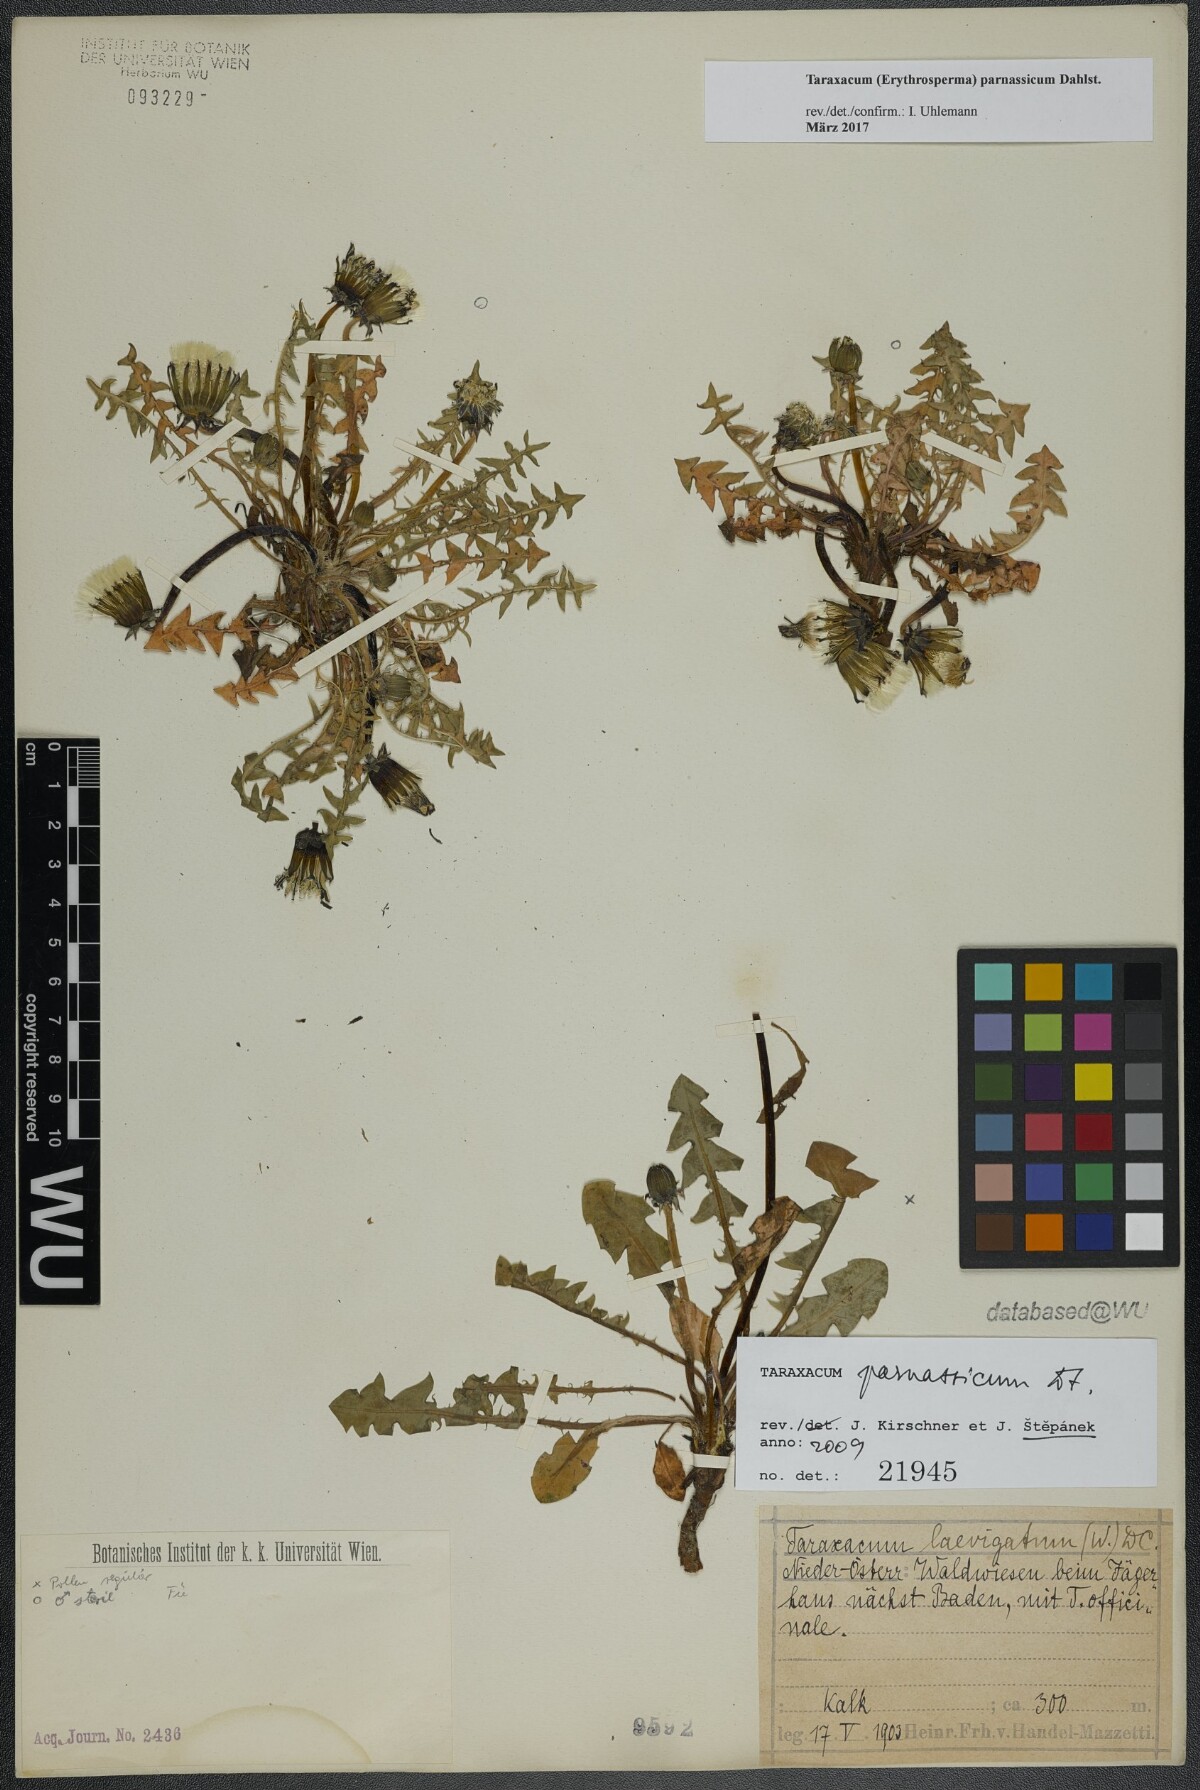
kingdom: Plantae
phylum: Tracheophyta
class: Magnoliopsida
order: Asterales
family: Asteraceae
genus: Taraxacum
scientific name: Taraxacum parnassicum
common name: Parnassus dandelion
